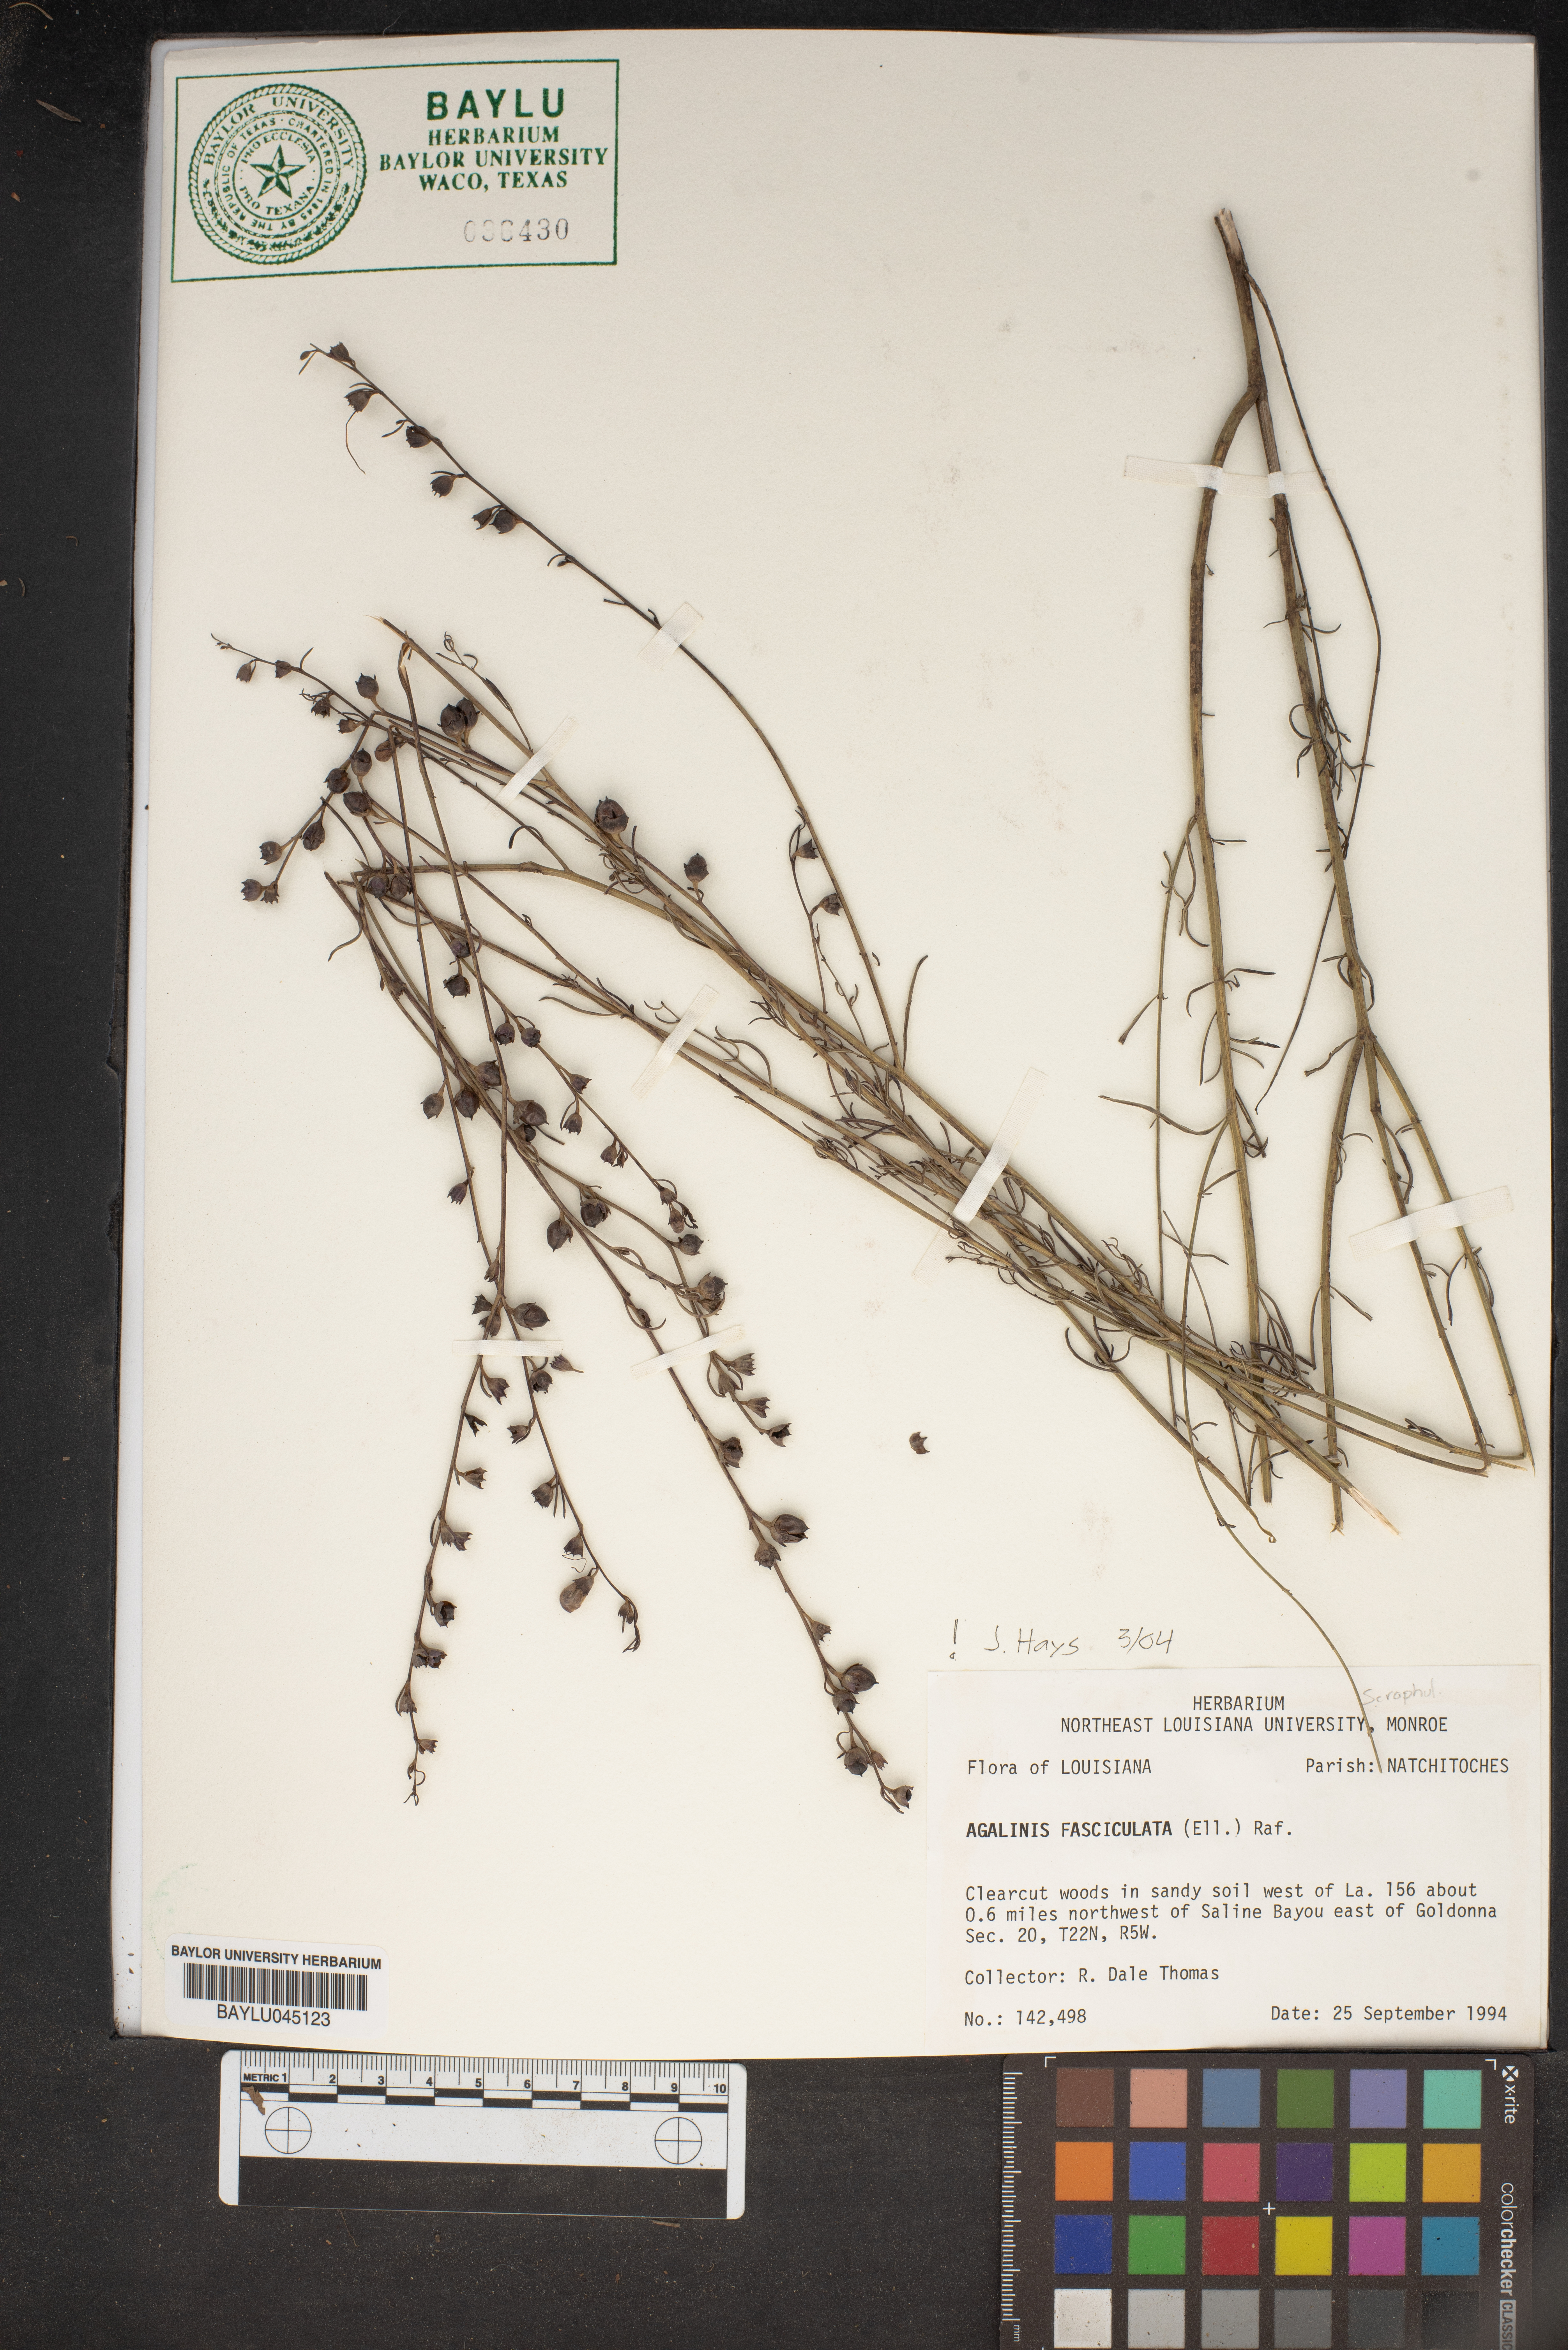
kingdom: Plantae
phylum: Tracheophyta
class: Magnoliopsida
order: Lamiales
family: Orobanchaceae
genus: Agalinis
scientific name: Agalinis fasciculata
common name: Beach false foxglove
